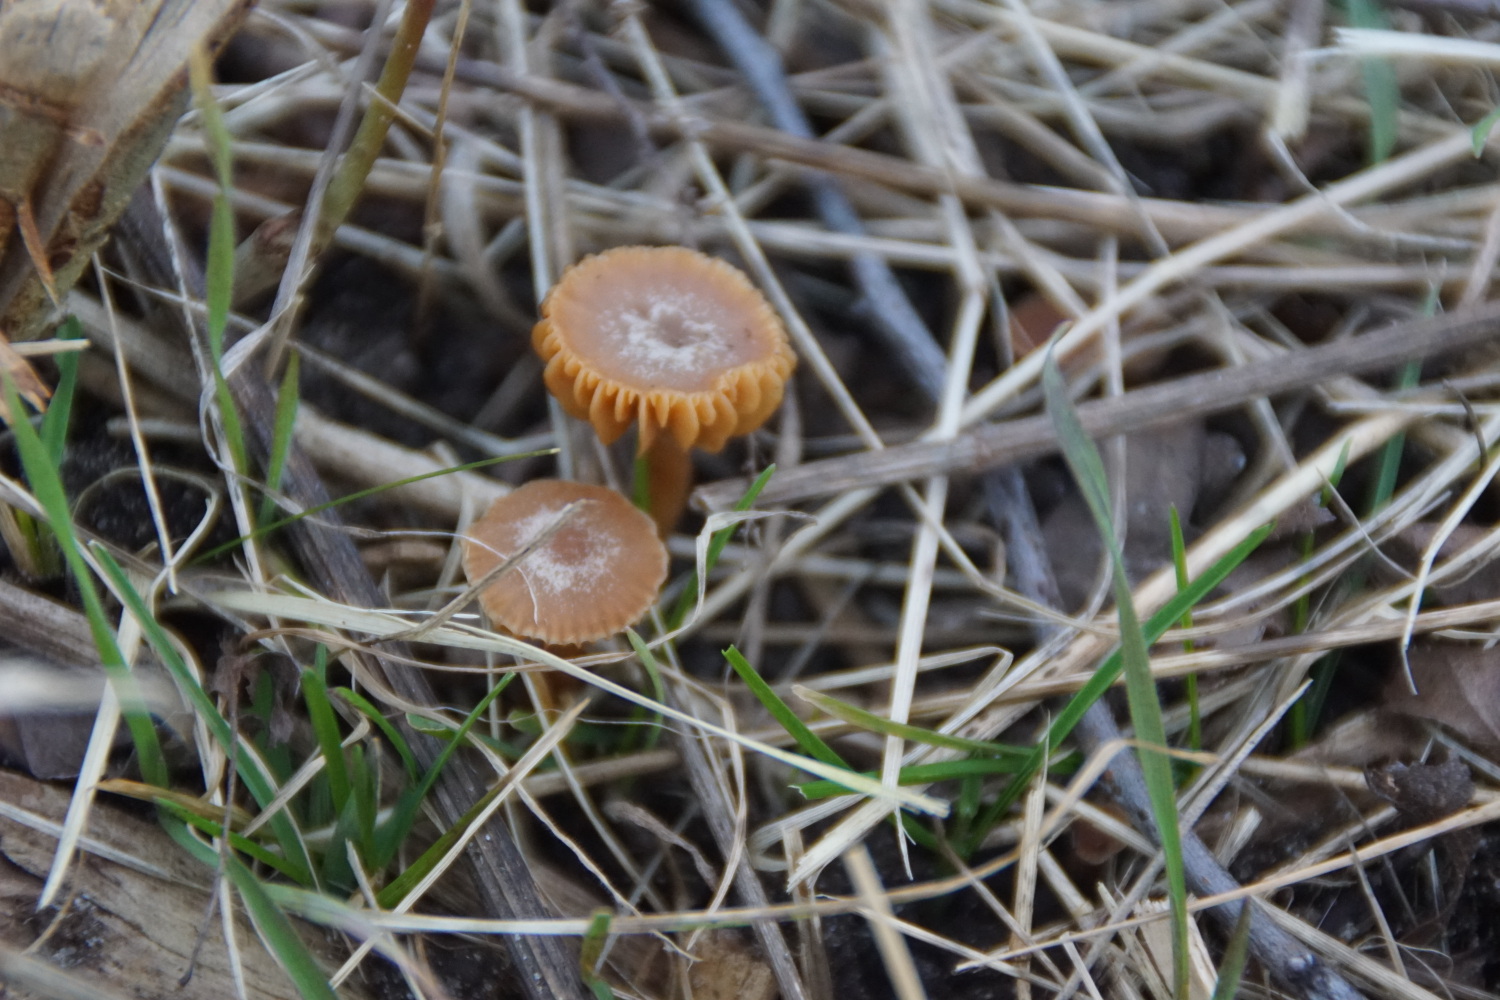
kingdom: Fungi
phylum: Basidiomycota
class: Agaricomycetes
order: Agaricales
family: Tubariaceae
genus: Tubaria
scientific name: Tubaria furfuracea
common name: kliddet fnughat
